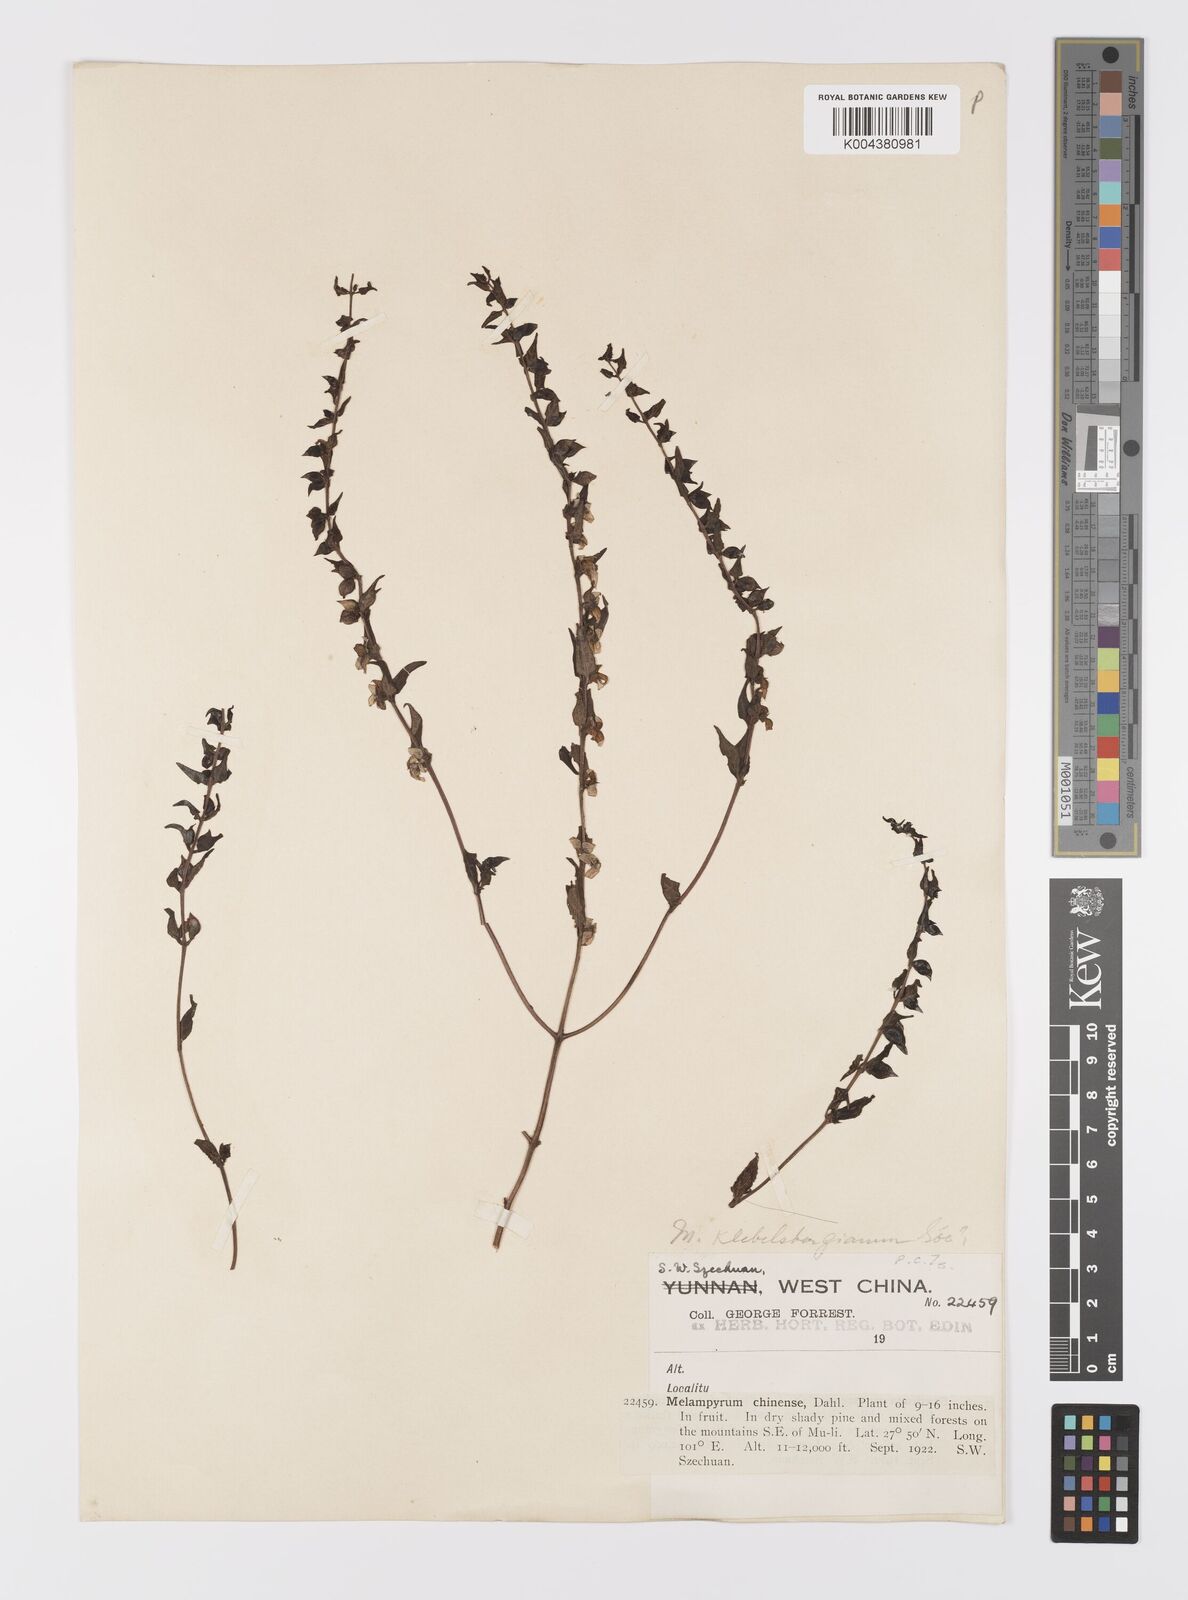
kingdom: Plantae
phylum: Tracheophyta
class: Magnoliopsida
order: Lamiales
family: Orobanchaceae
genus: Melampyrum
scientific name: Melampyrum chinense
